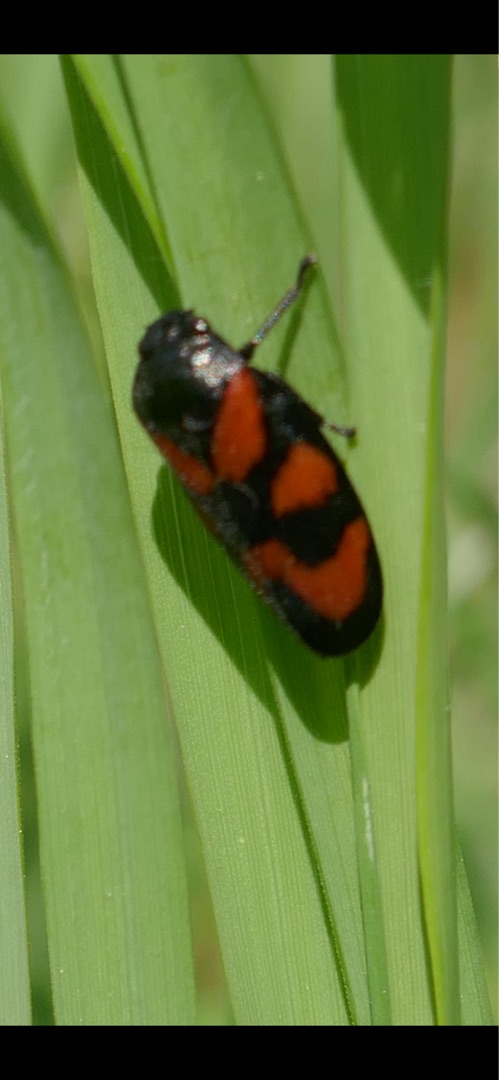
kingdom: Animalia
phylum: Arthropoda
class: Insecta
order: Hemiptera
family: Cercopidae
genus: Cercopis
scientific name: Cercopis vulnerata
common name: Blodcikade
